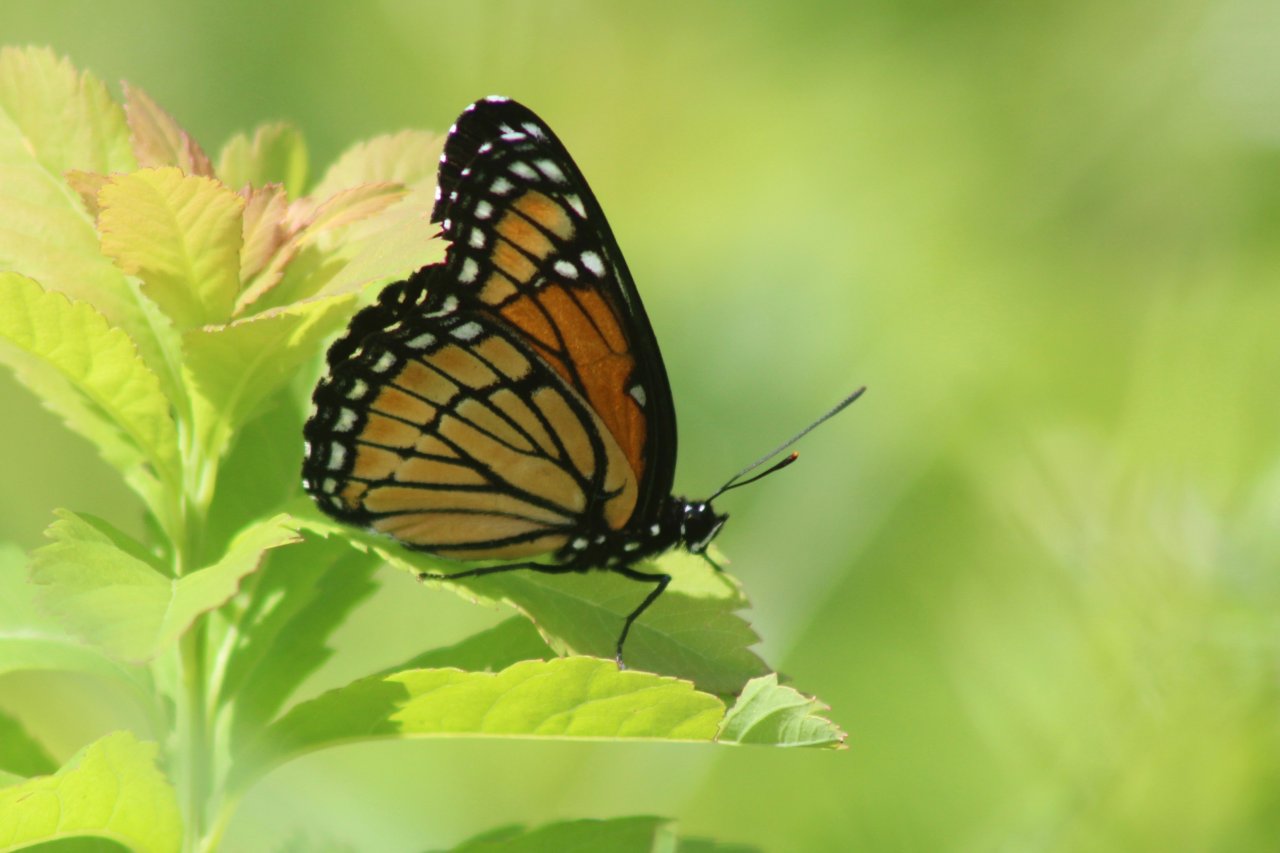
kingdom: Animalia
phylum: Arthropoda
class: Insecta
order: Lepidoptera
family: Nymphalidae
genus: Limenitis
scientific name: Limenitis archippus
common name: Viceroy
